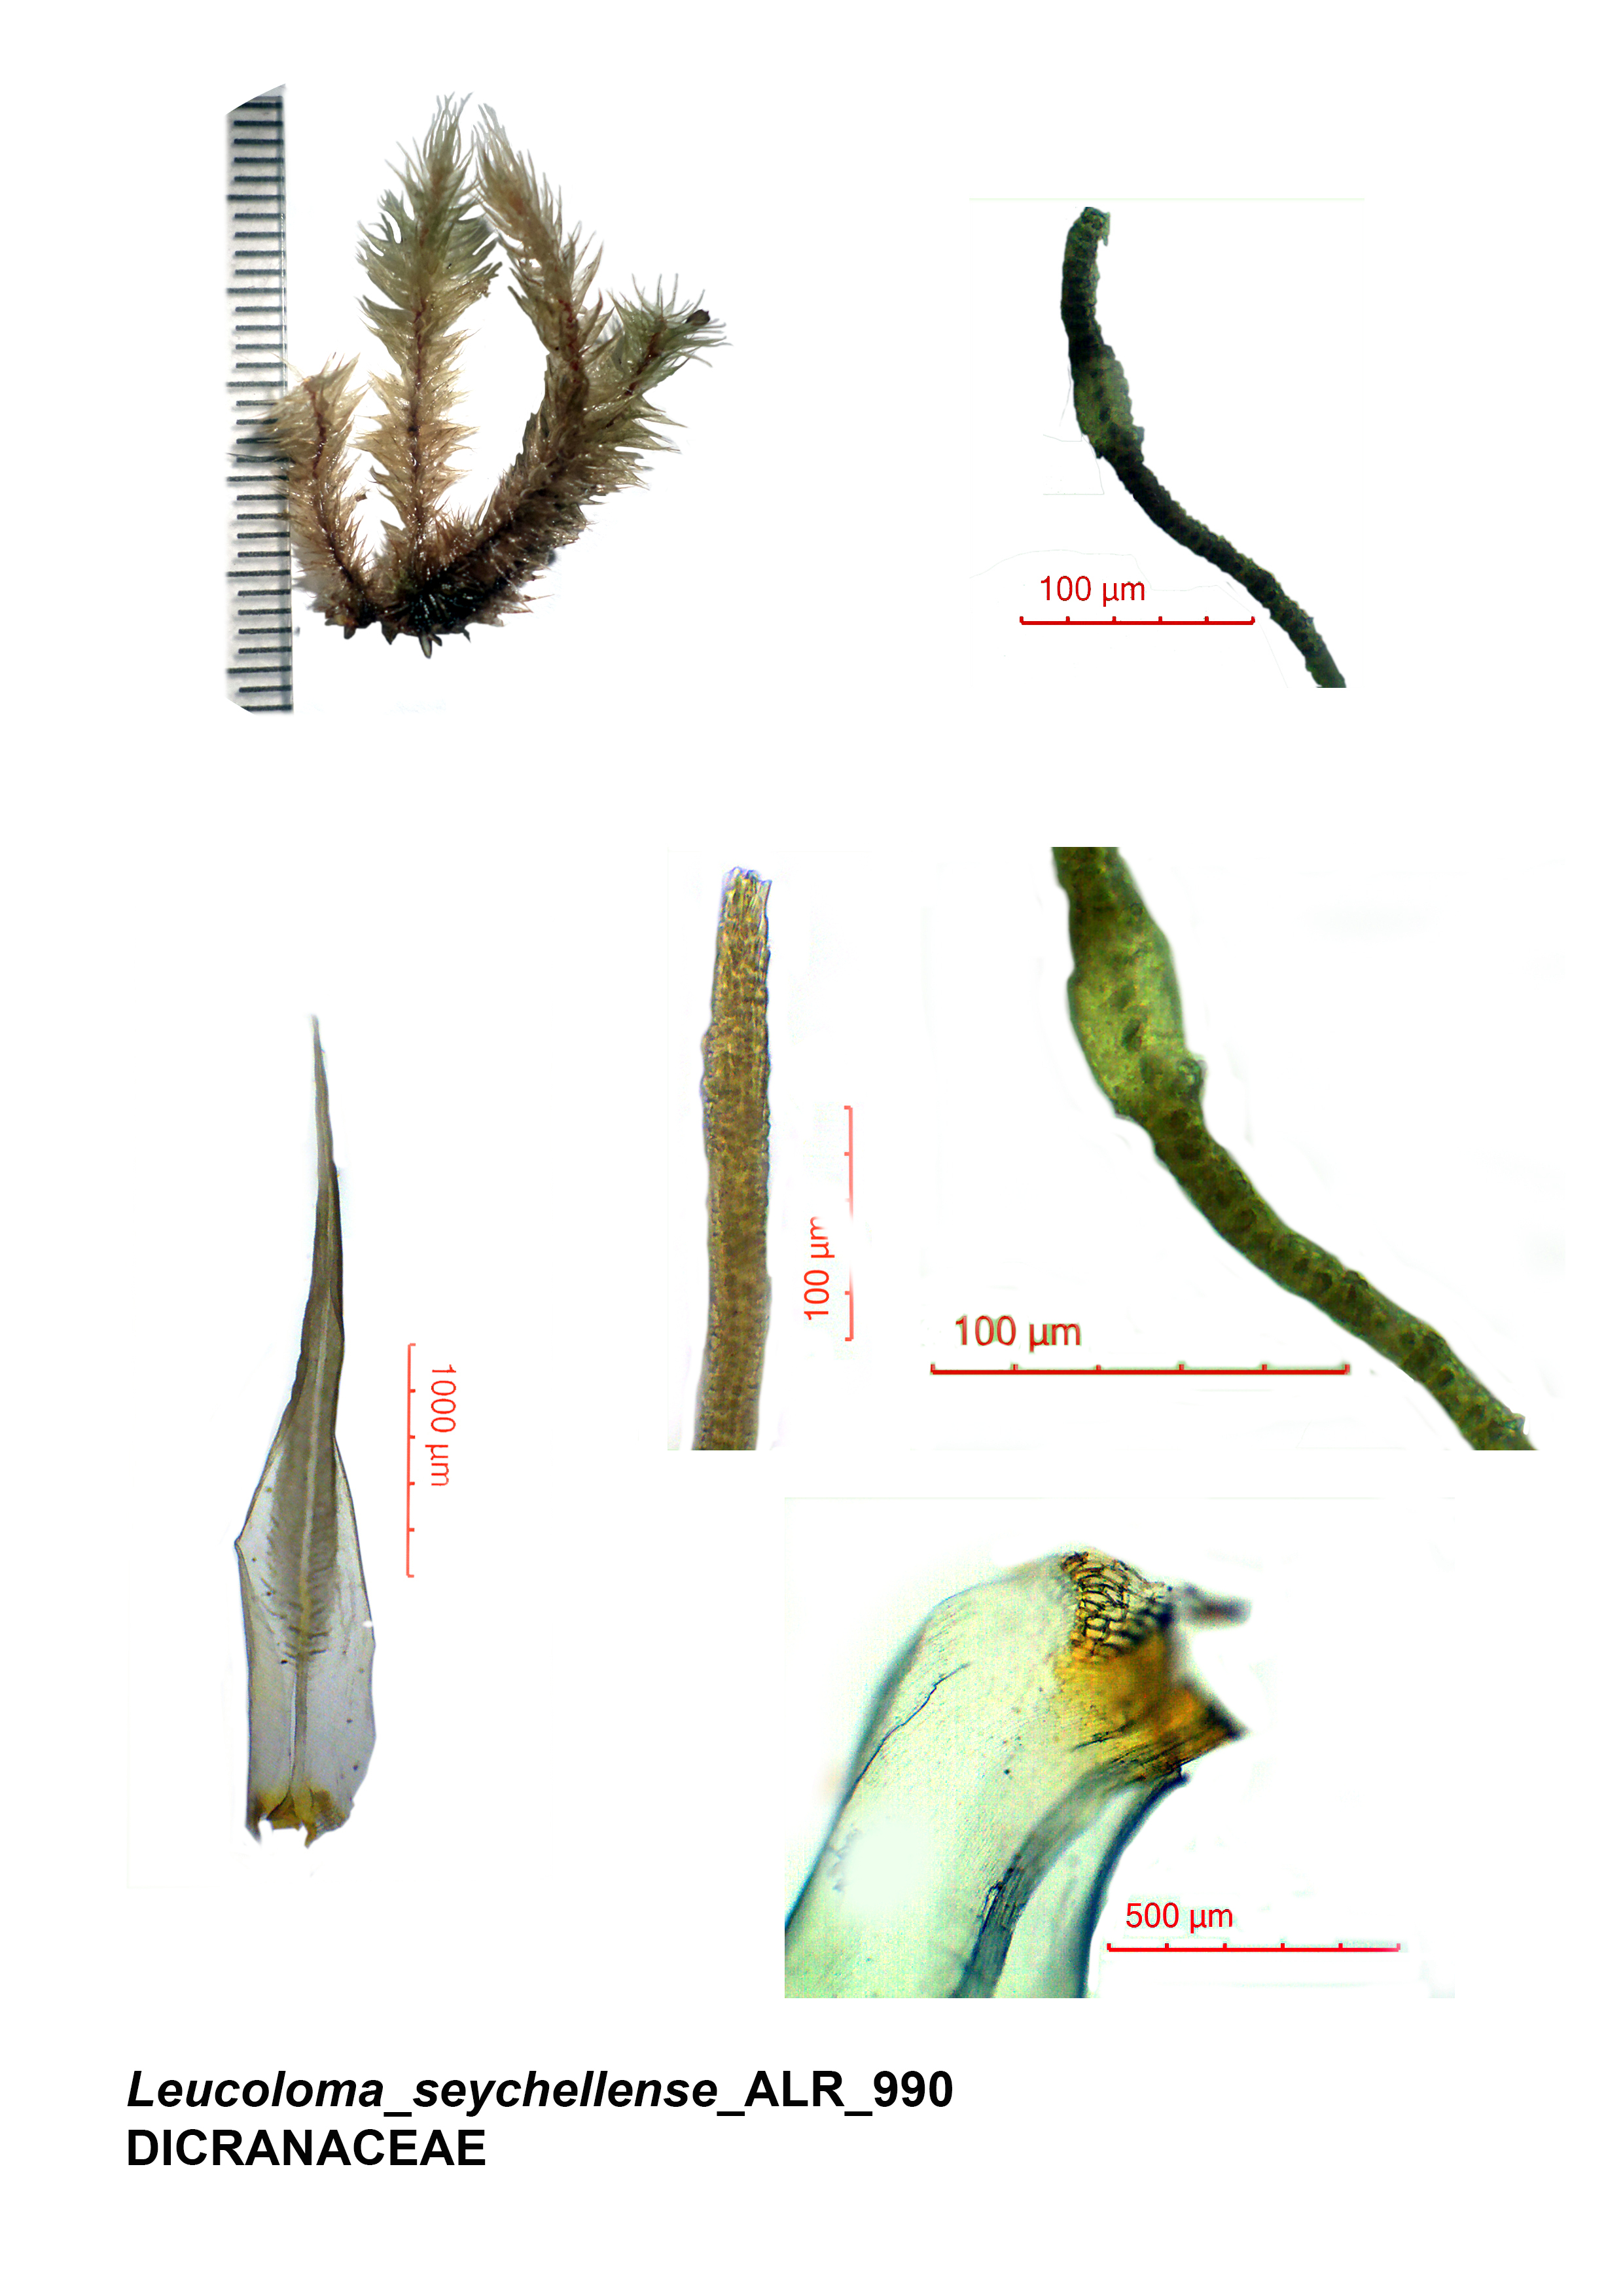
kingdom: Plantae
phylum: Bryophyta
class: Bryopsida
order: Dicranales
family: Dicranaceae
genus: Leucoloma
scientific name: Leucoloma seychellense
